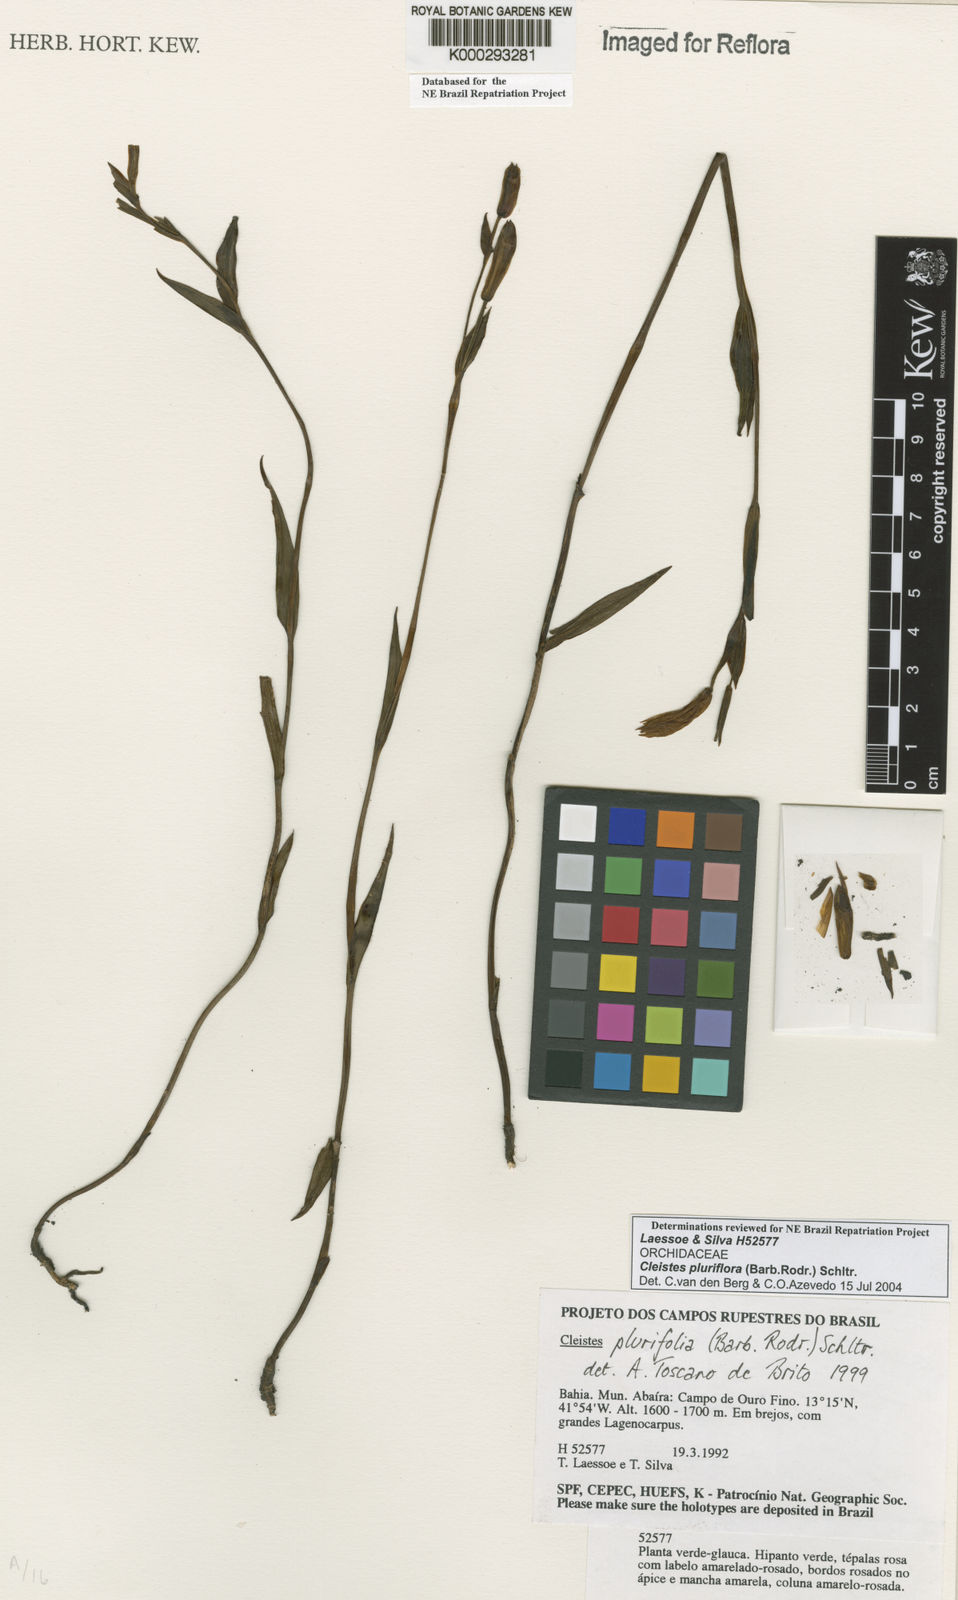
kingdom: Plantae
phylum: Tracheophyta
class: Liliopsida
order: Asparagales
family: Orchidaceae
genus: Cleistes
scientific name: Cleistes moritzii
